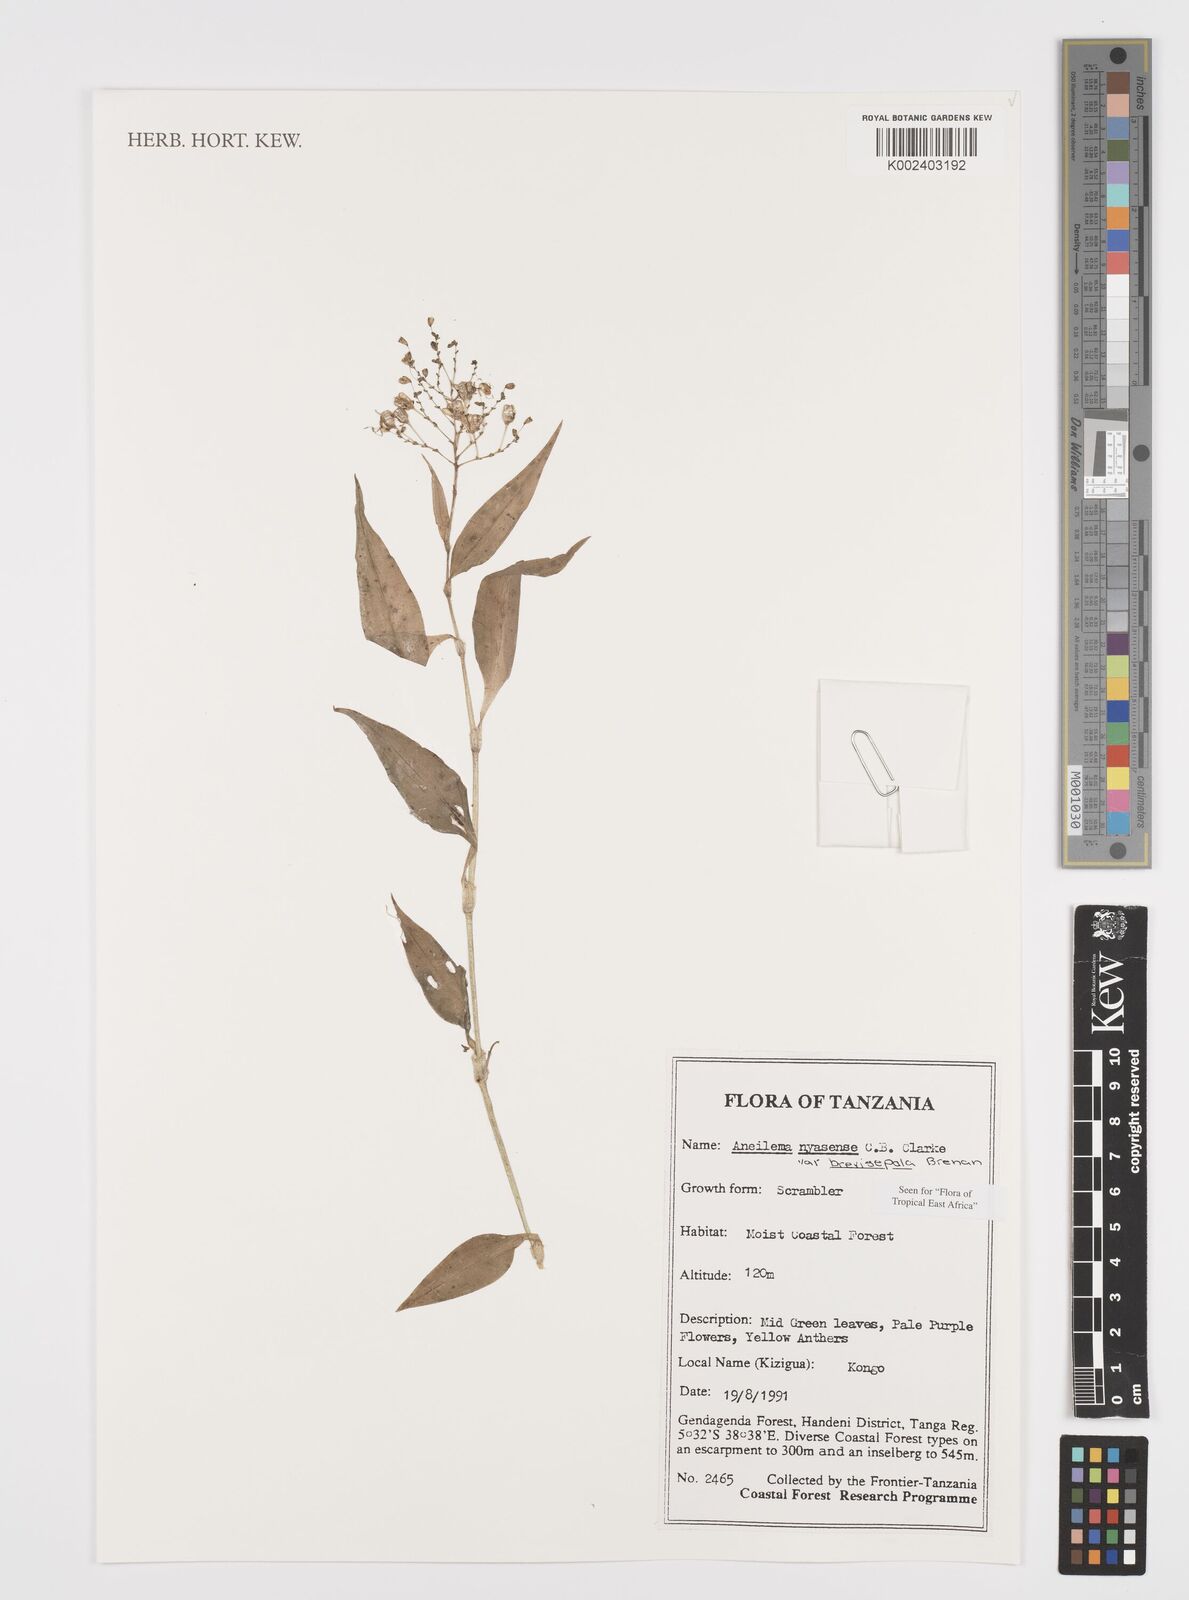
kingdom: Plantae
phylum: Tracheophyta
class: Liliopsida
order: Commelinales
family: Commelinaceae
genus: Aneilema
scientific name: Aneilema nyasense
